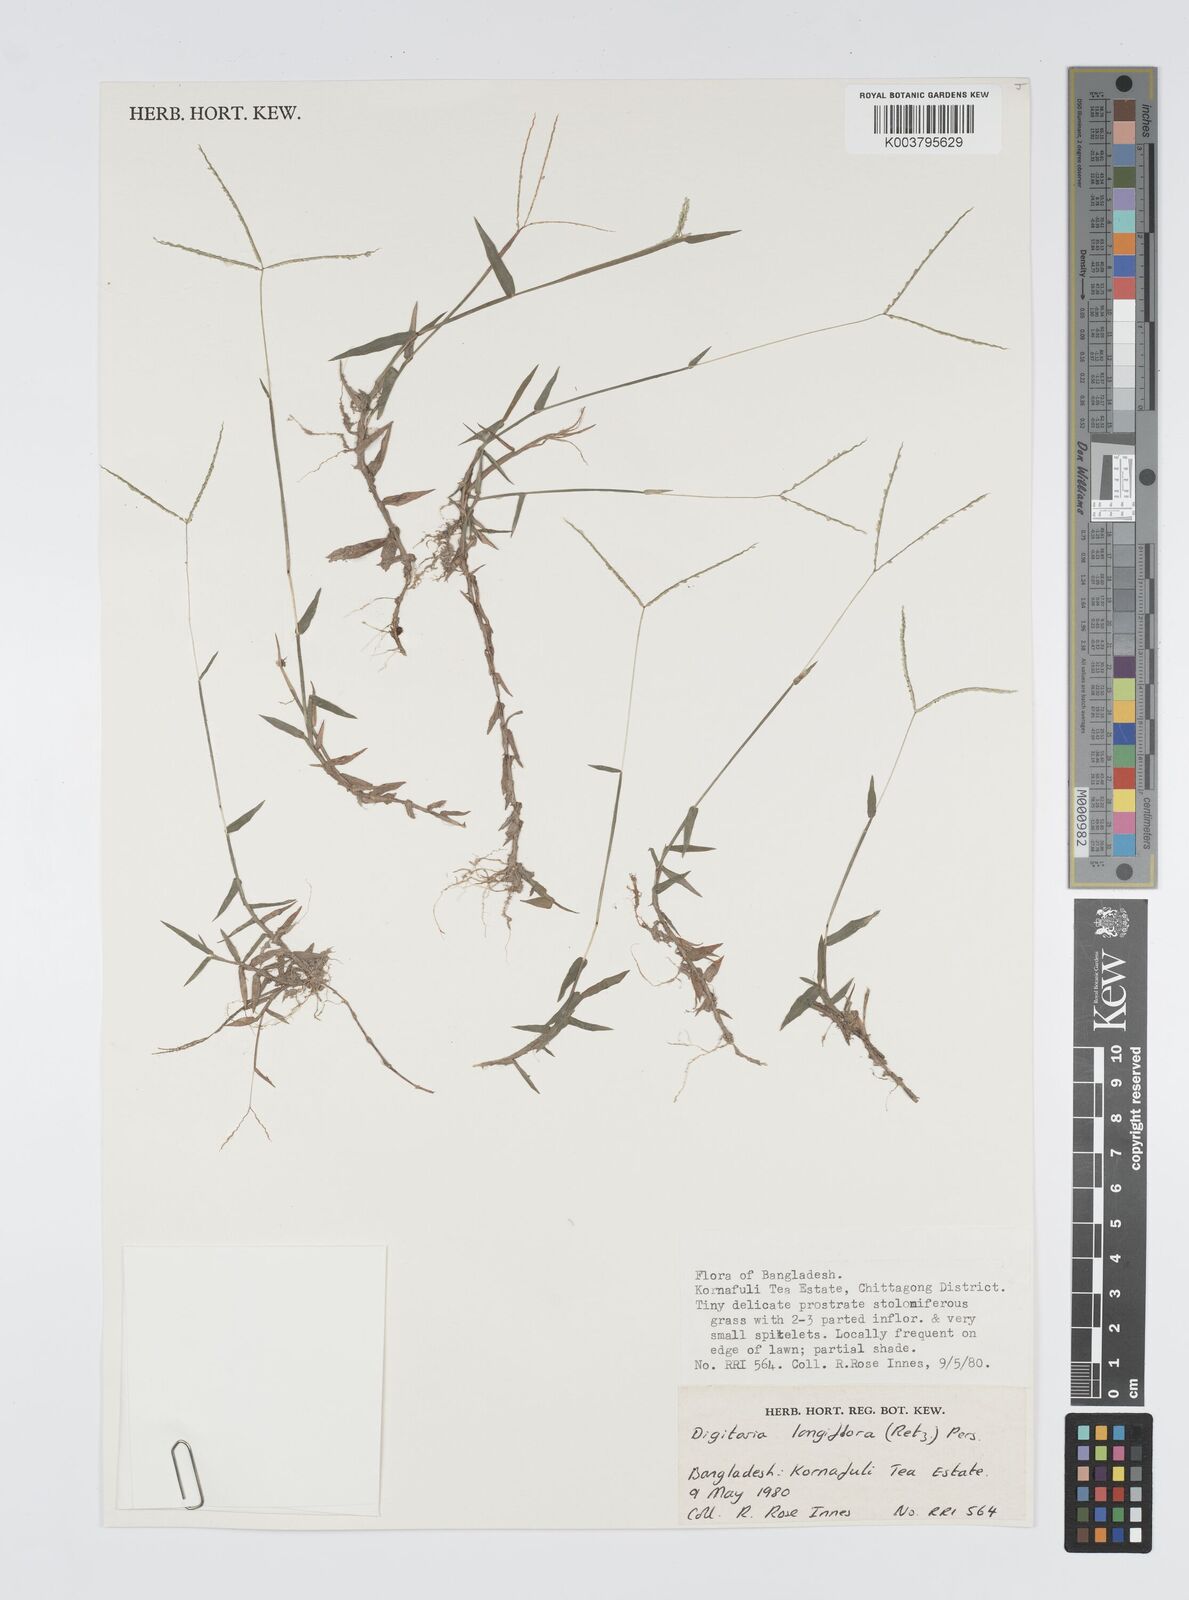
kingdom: Plantae
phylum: Tracheophyta
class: Liliopsida
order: Poales
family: Poaceae
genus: Digitaria
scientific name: Digitaria longiflora
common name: Wire crabgrass
